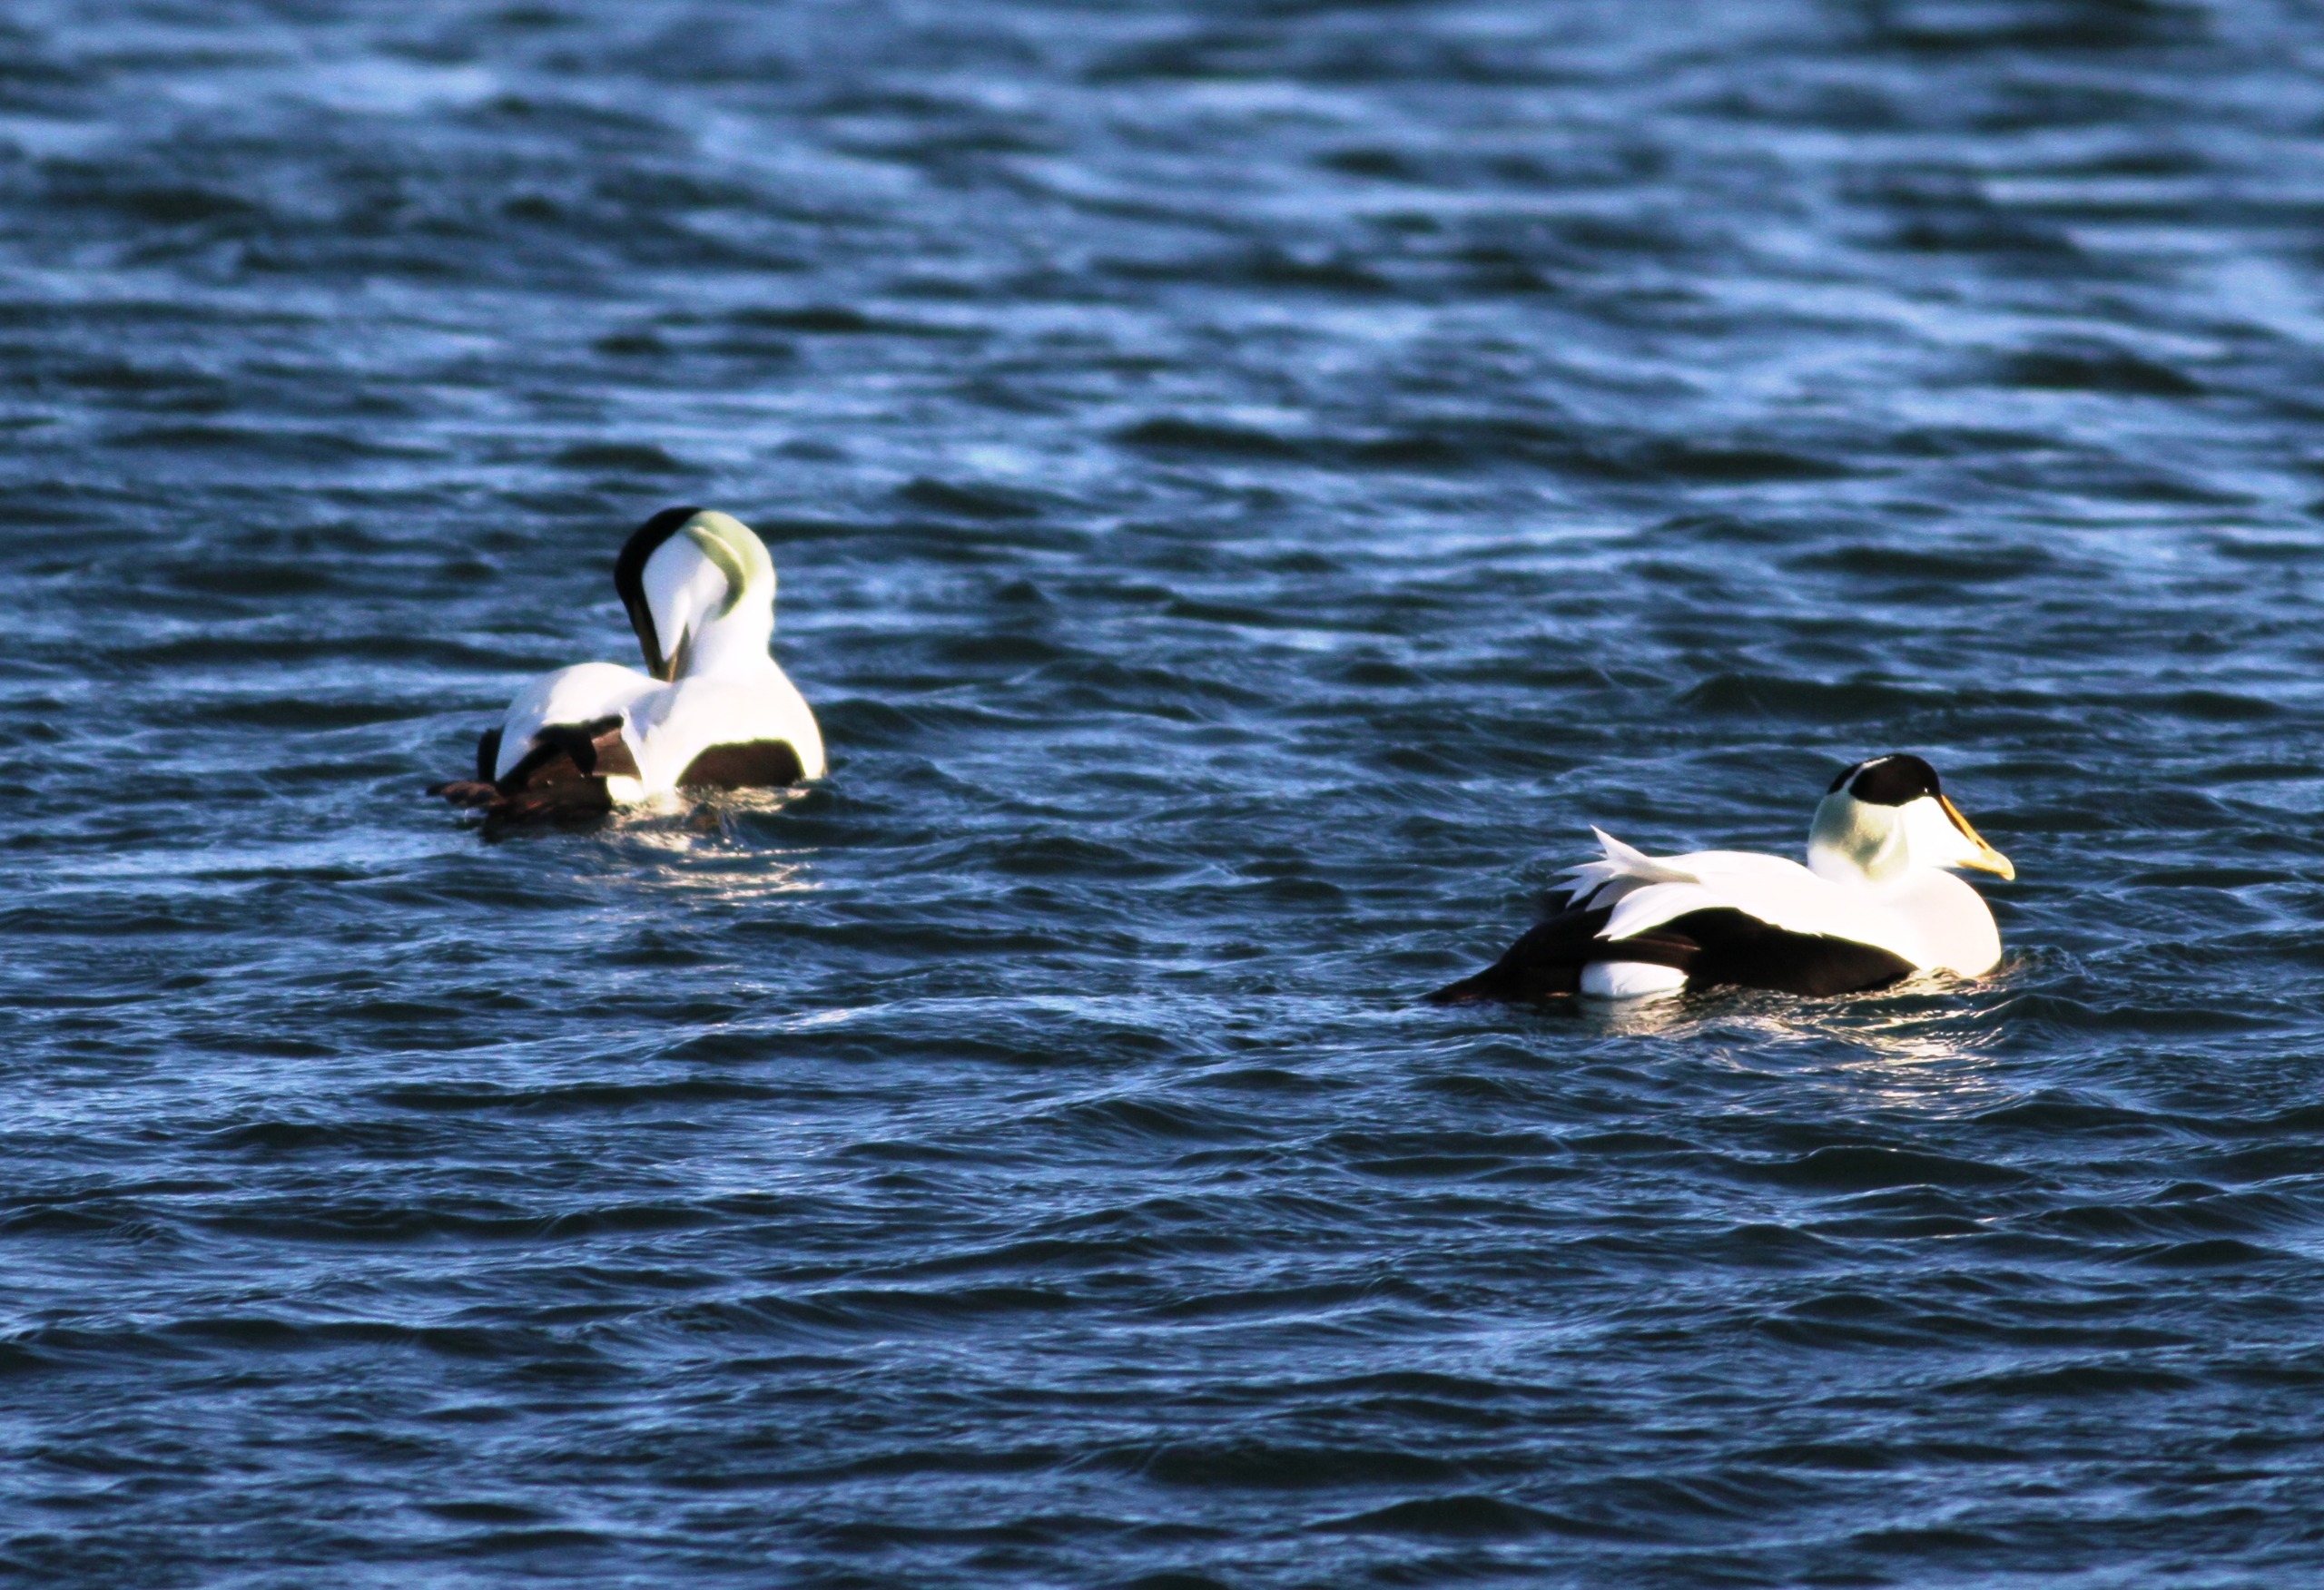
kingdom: Animalia
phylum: Chordata
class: Aves
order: Anseriformes
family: Anatidae
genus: Somateria
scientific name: Somateria mollissima
